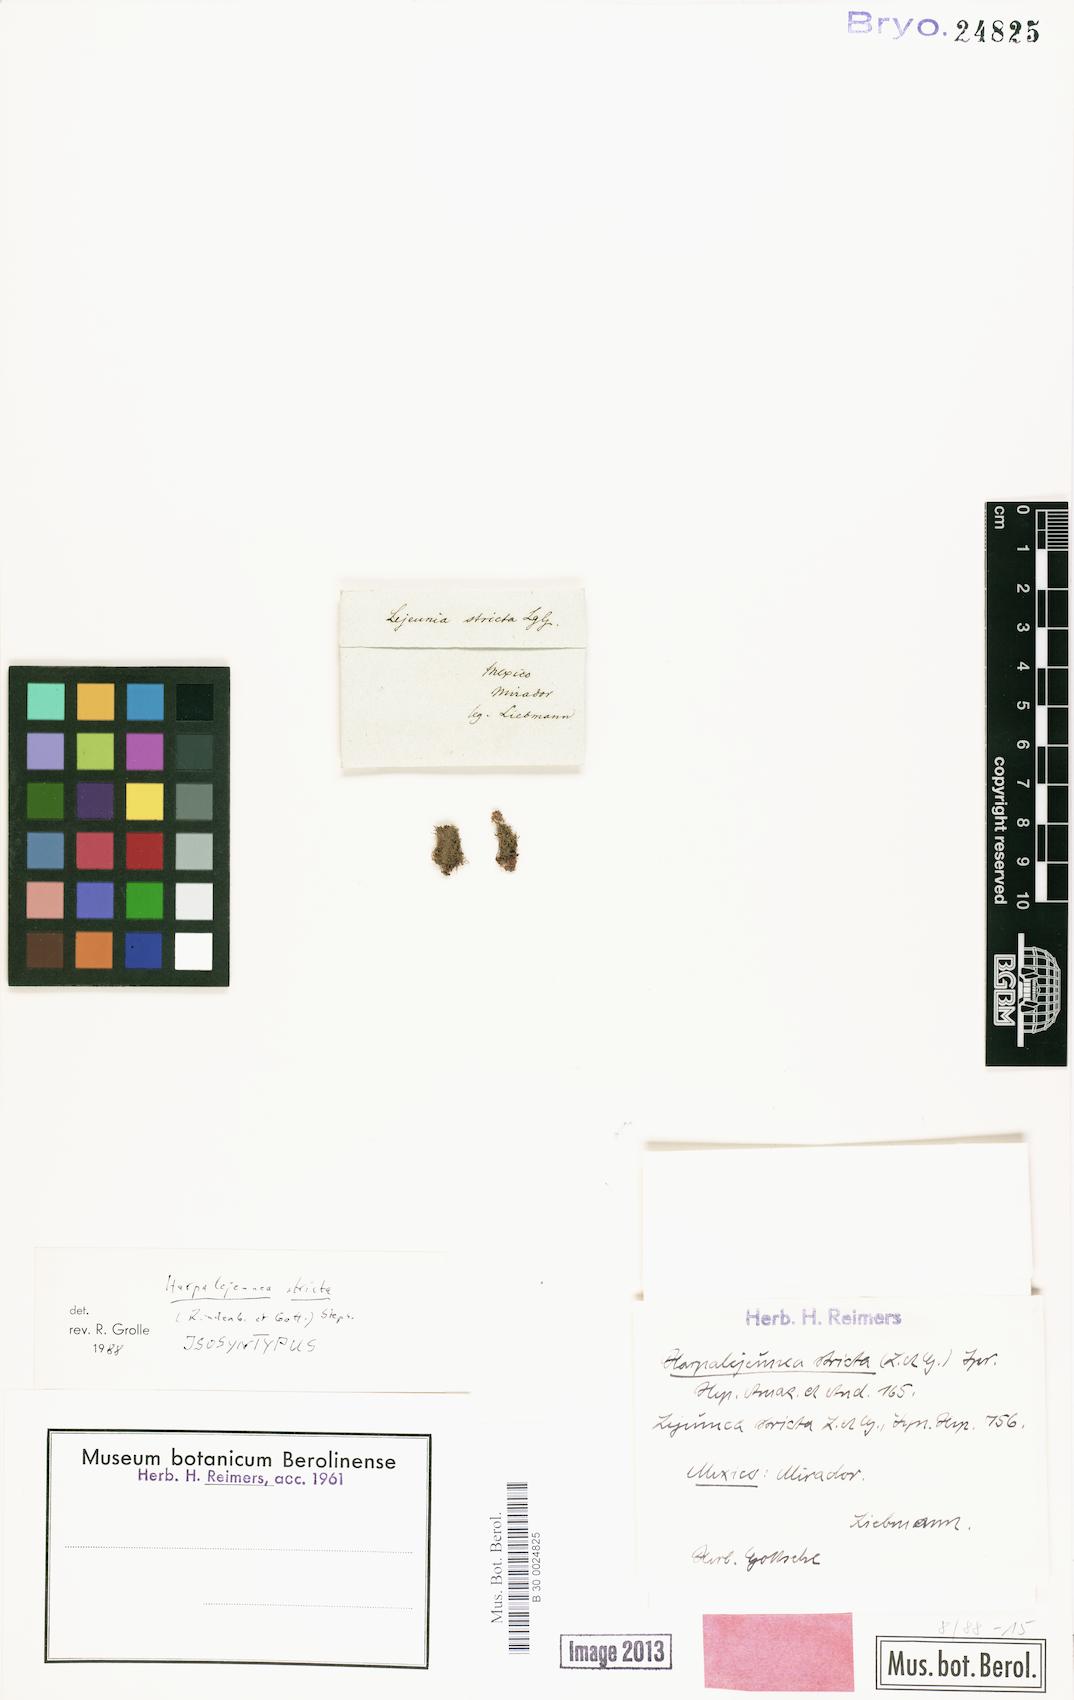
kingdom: Plantae
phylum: Marchantiophyta
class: Jungermanniopsida
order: Porellales
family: Lejeuneaceae
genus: Harpalejeunea
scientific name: Harpalejeunea stricta
